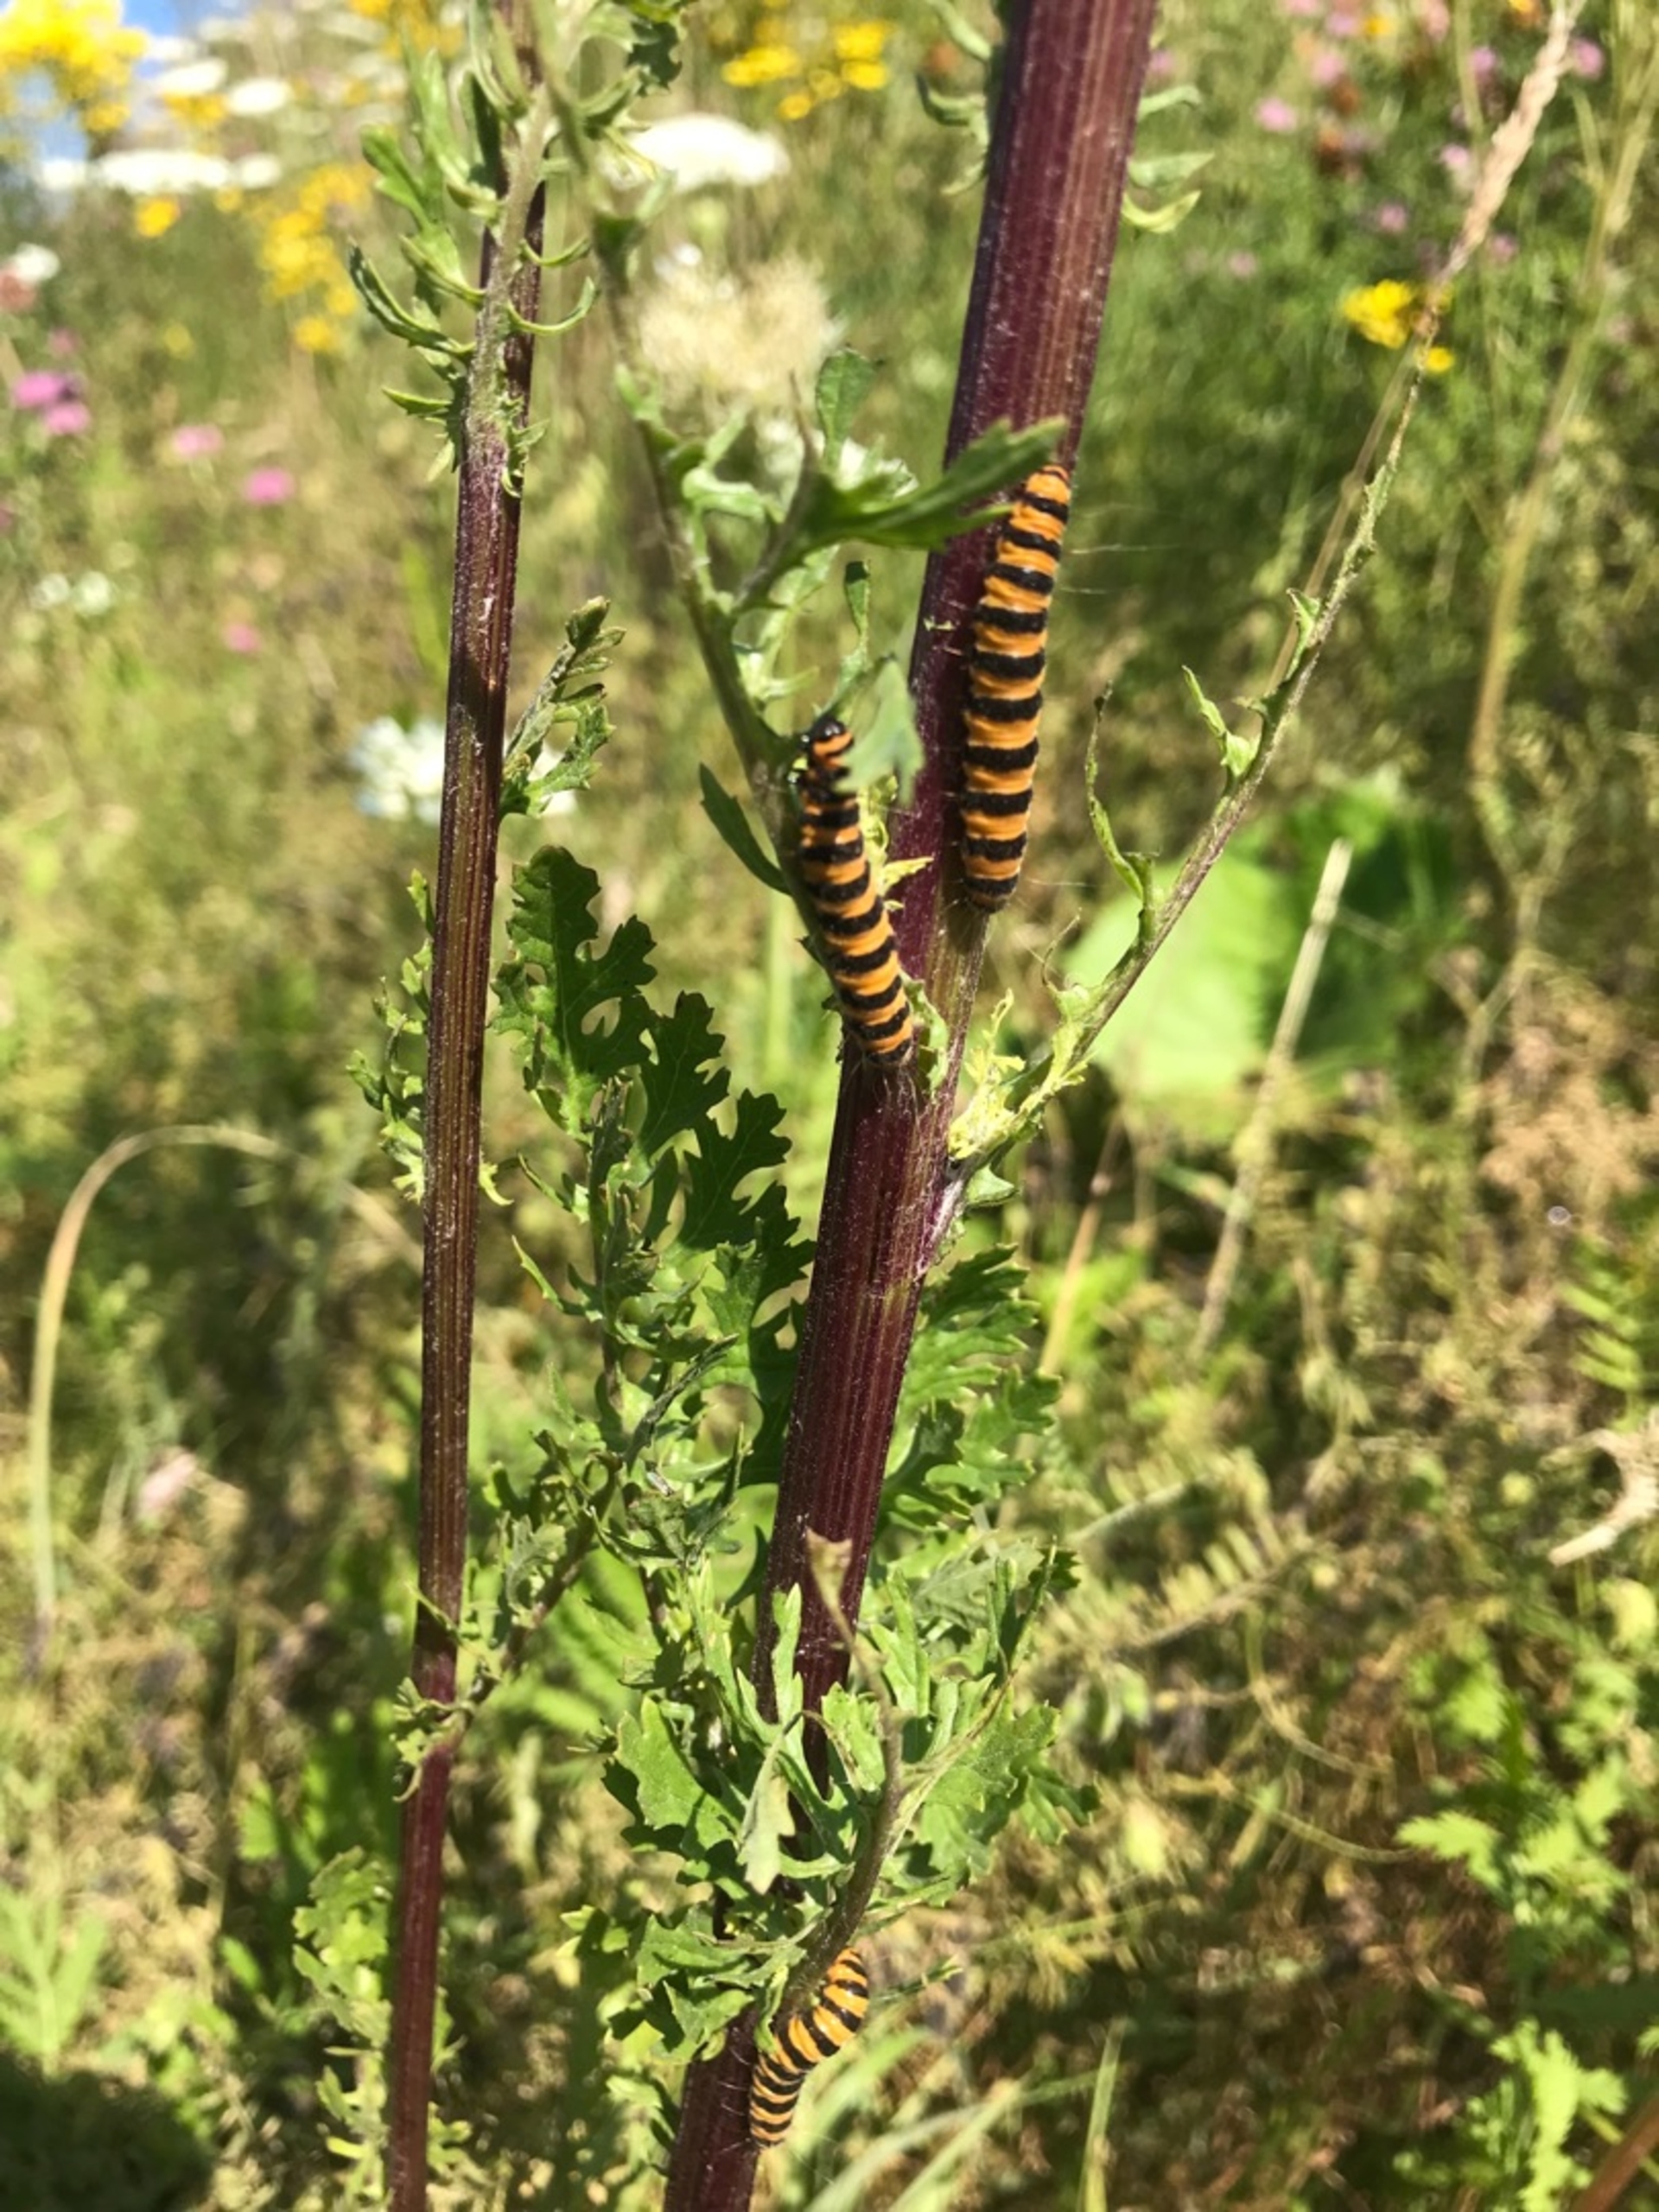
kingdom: Animalia
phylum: Arthropoda
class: Insecta
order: Lepidoptera
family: Erebidae
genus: Tyria
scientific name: Tyria jacobaeae
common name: Blodplet
